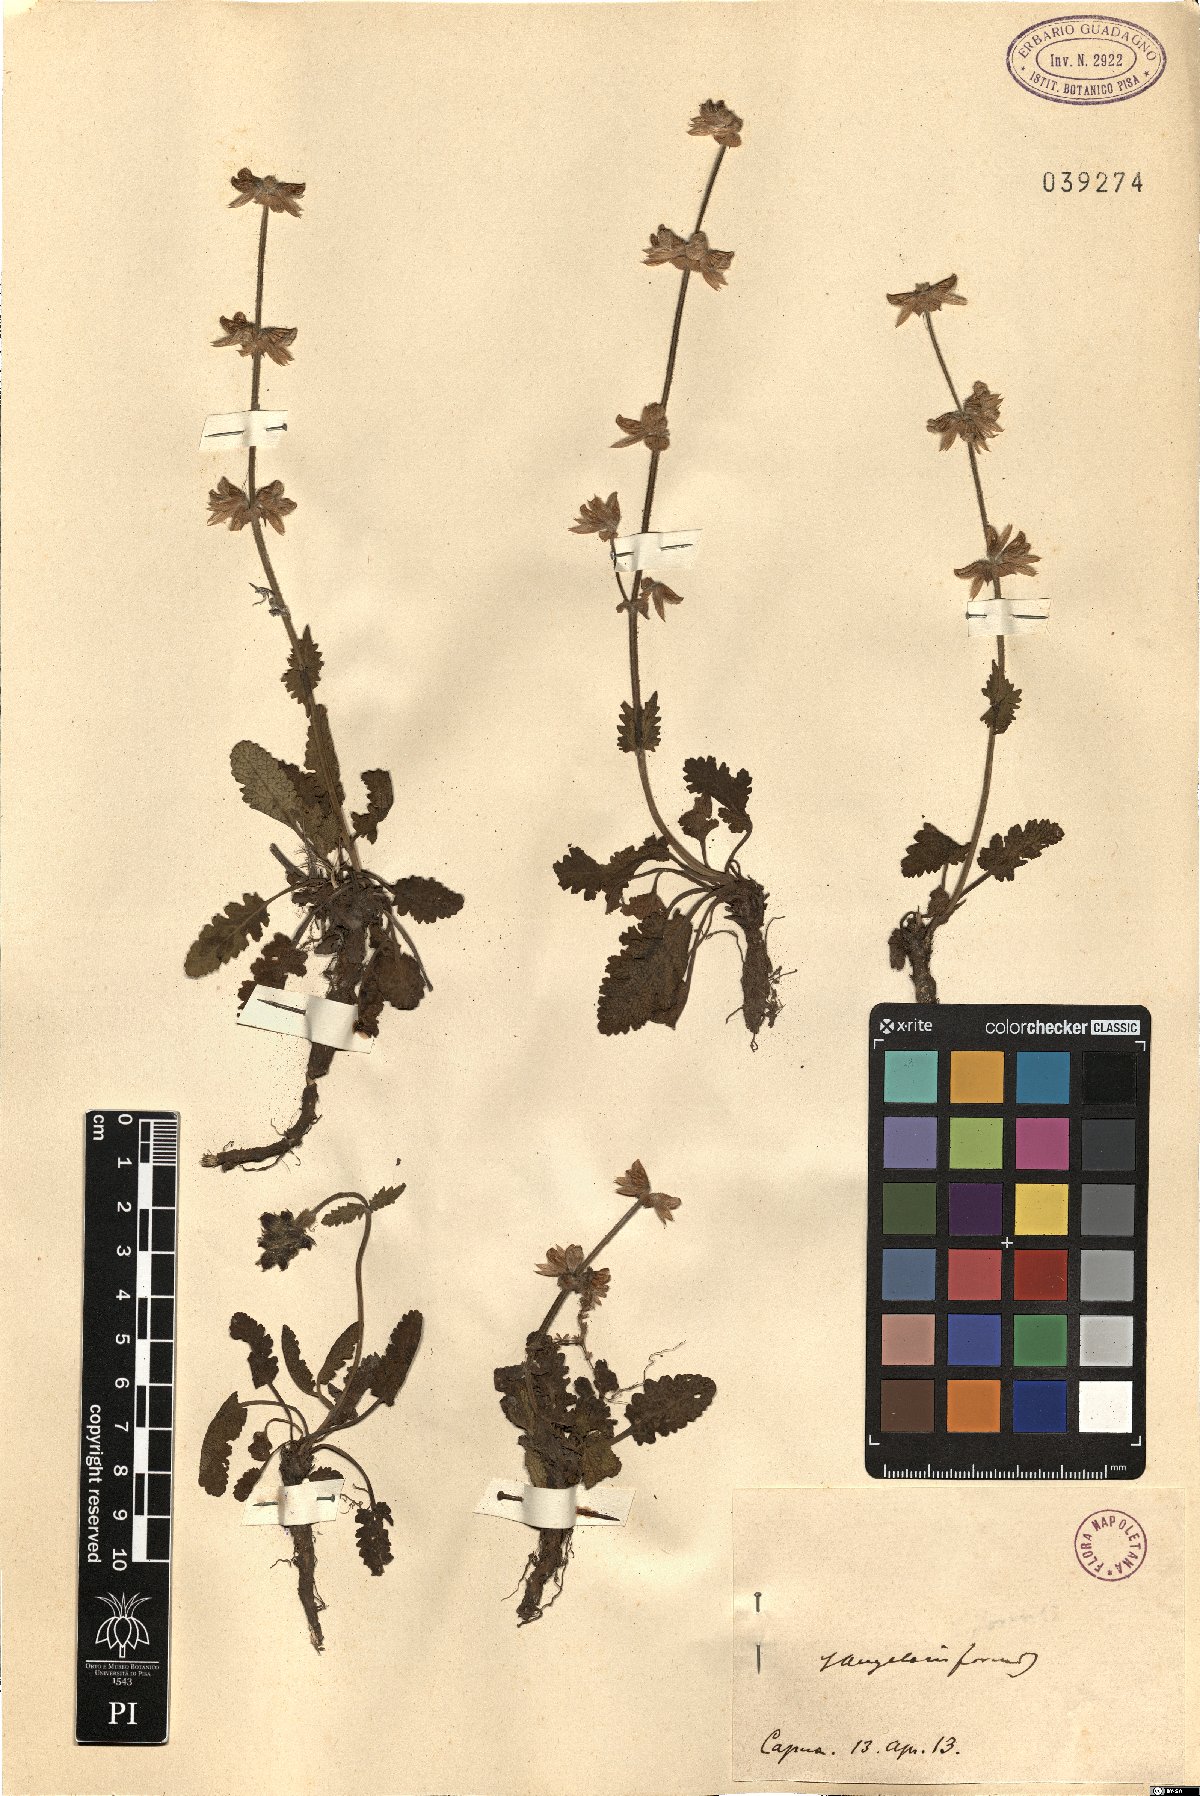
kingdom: Plantae
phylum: Tracheophyta
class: Magnoliopsida
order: Lamiales
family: Lamiaceae
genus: Salvia
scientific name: Salvia
